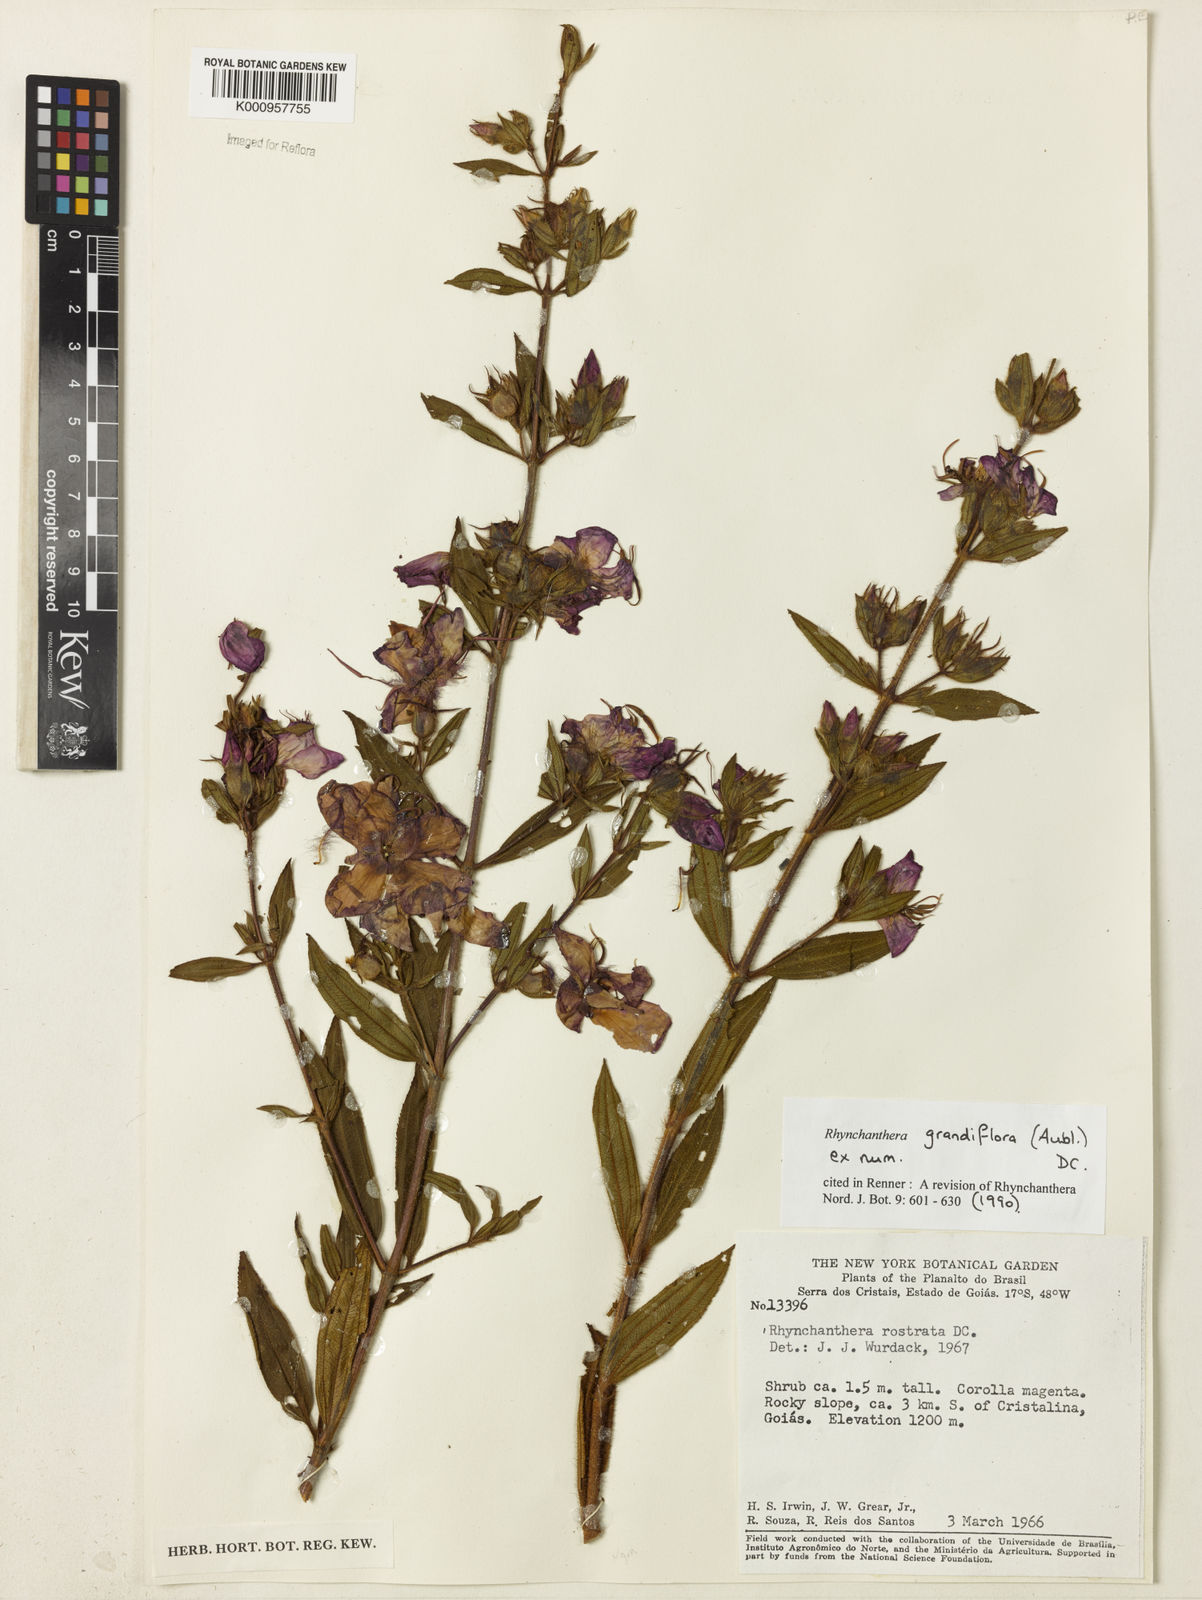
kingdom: Plantae
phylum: Tracheophyta
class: Magnoliopsida
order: Myrtales
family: Melastomataceae
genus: Rhynchanthera
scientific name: Rhynchanthera grandiflora
